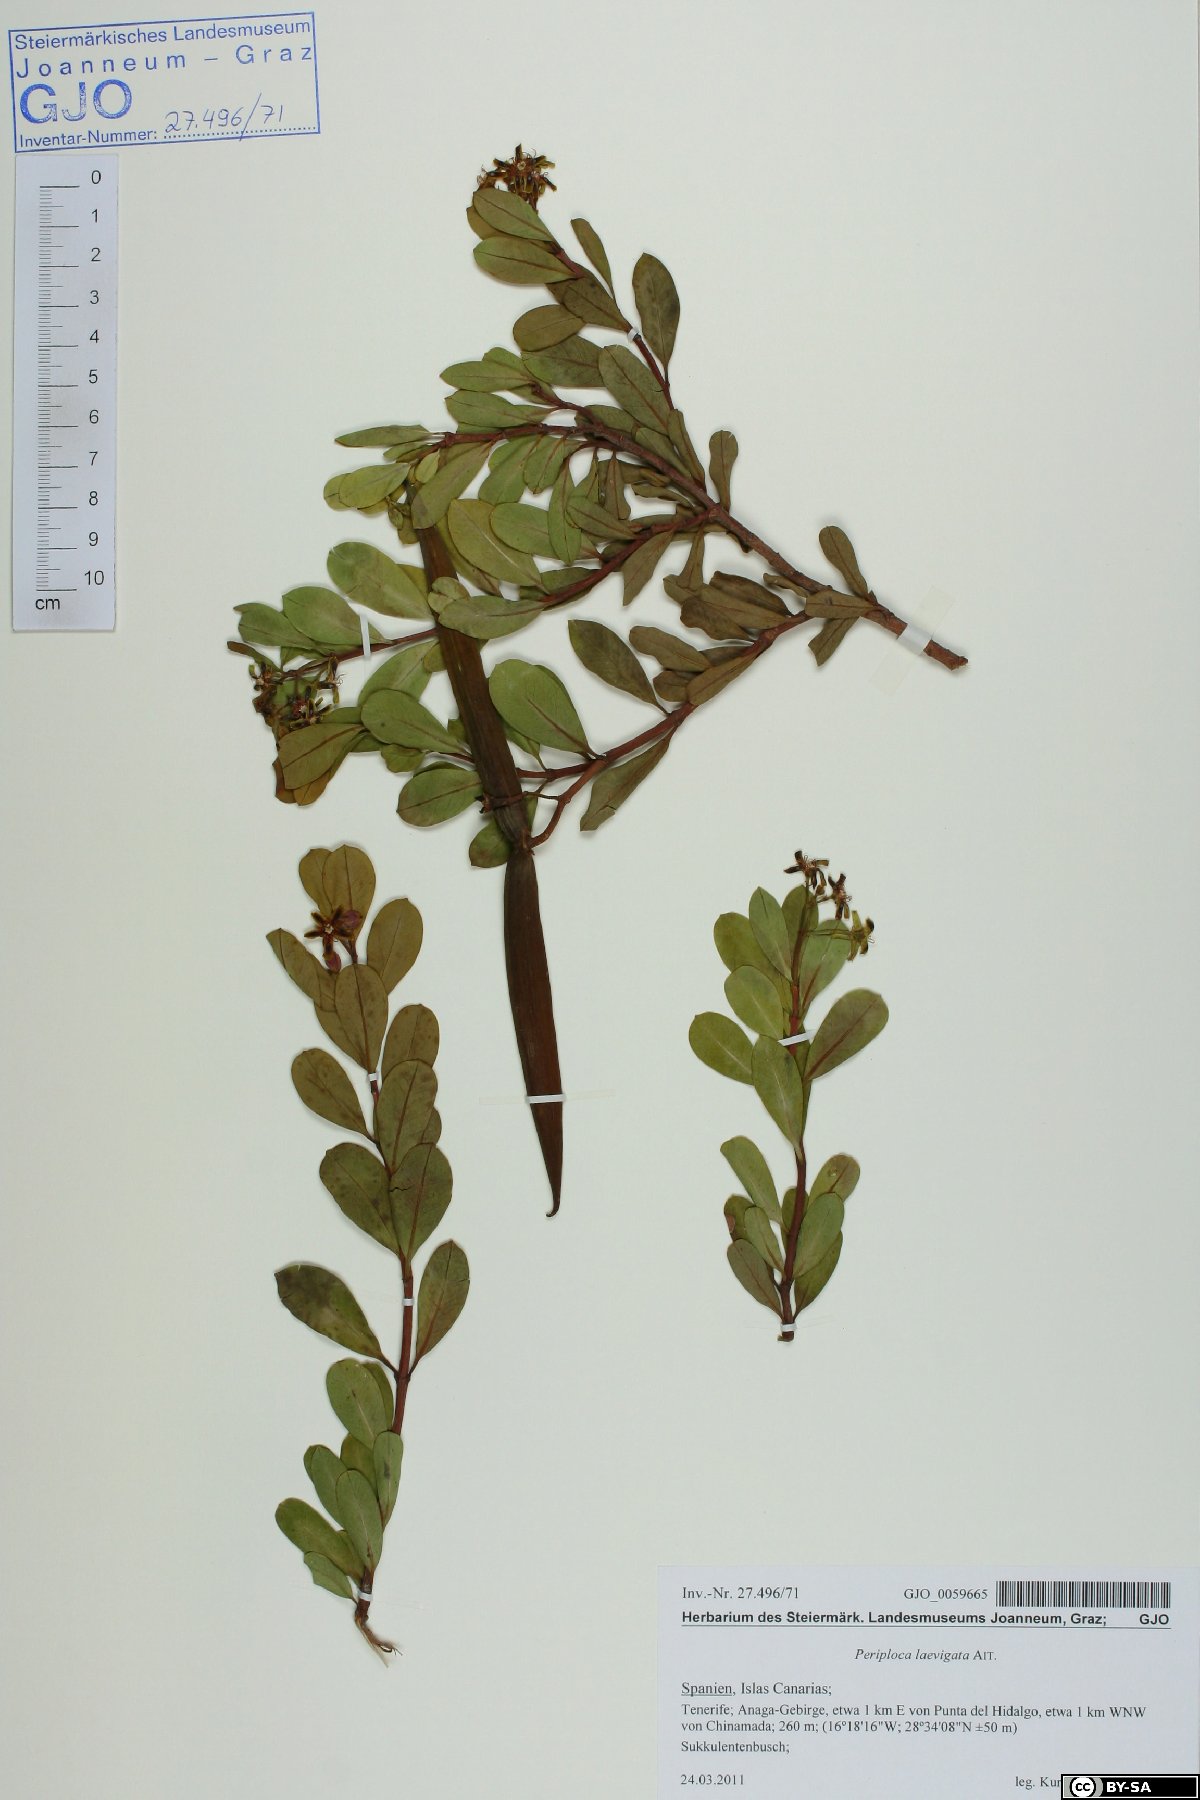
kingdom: Plantae
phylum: Tracheophyta
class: Magnoliopsida
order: Gentianales
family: Apocynaceae
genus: Periploca
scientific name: Periploca laevigata
